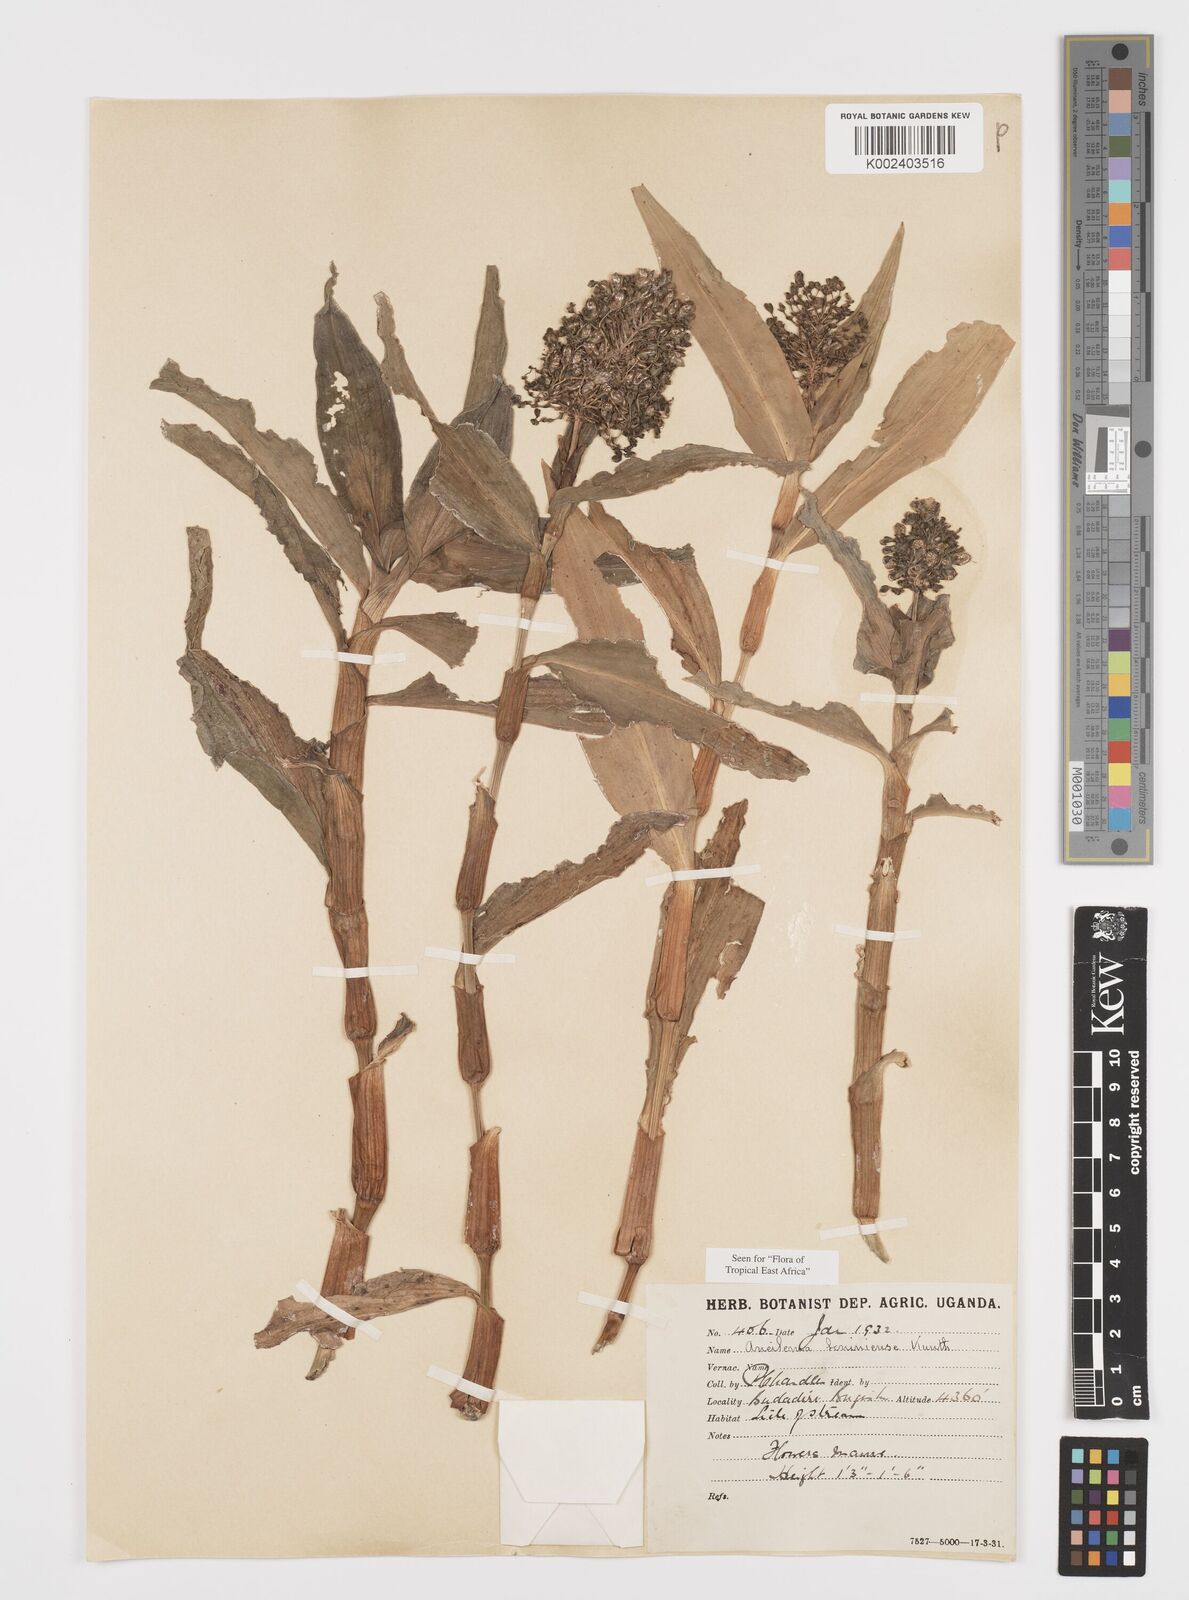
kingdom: Plantae
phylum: Tracheophyta
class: Liliopsida
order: Commelinales
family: Commelinaceae
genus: Aneilema
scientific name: Aneilema beniniense
